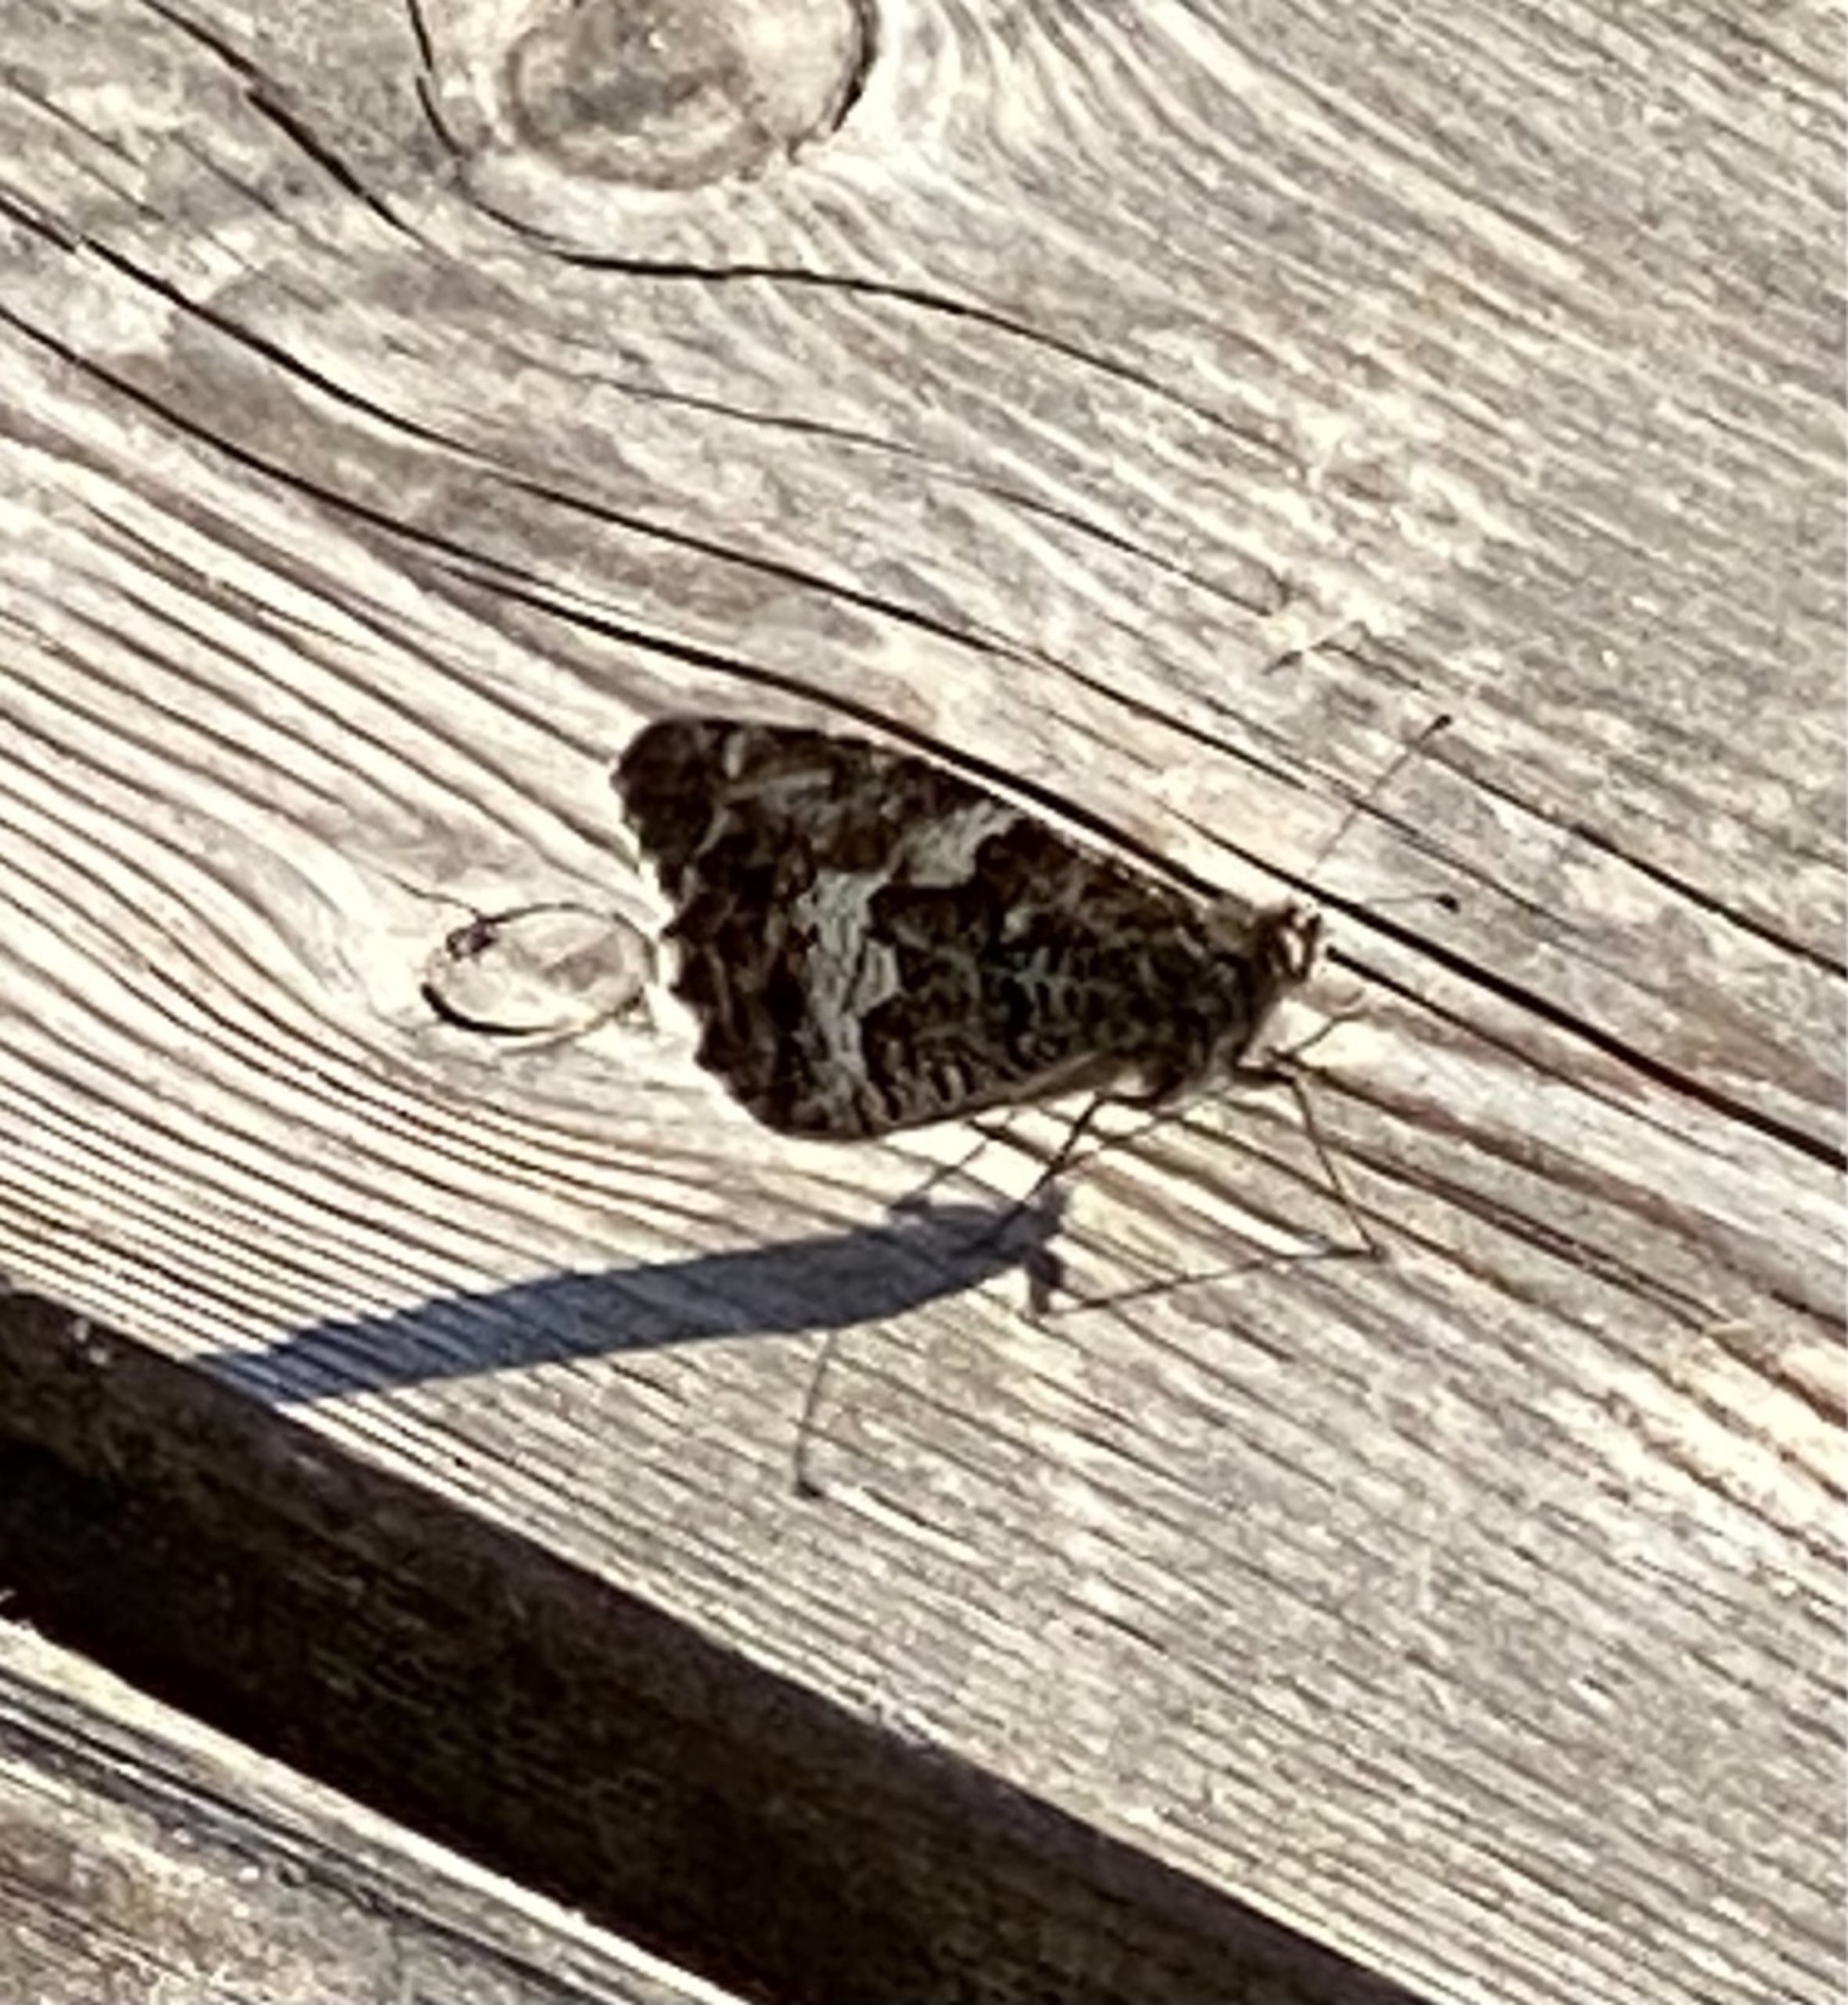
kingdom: Animalia
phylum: Arthropoda
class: Insecta
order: Lepidoptera
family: Nymphalidae
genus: Hipparchia
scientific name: Hipparchia semele
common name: Sandrandøje
